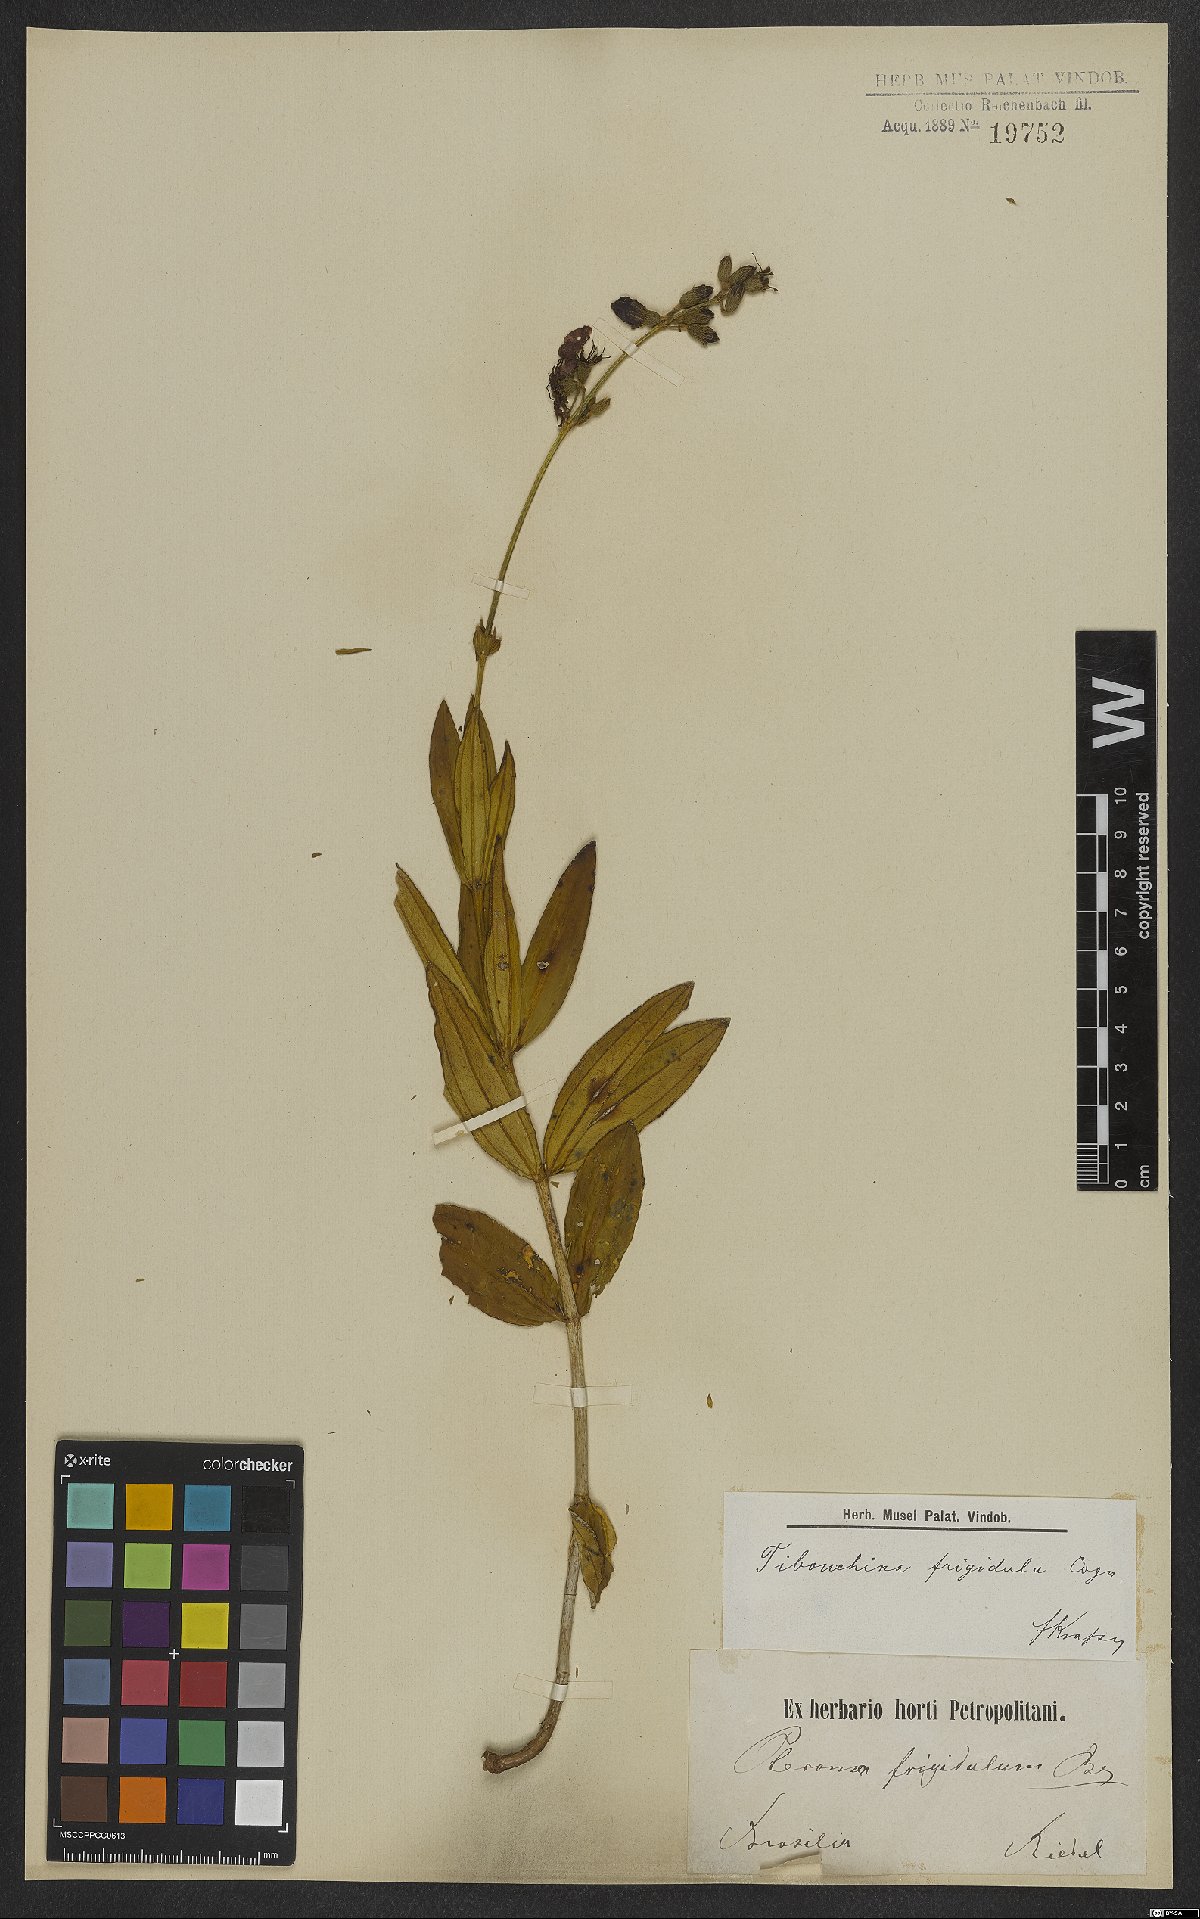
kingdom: Plantae
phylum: Tracheophyta
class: Magnoliopsida
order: Myrtales
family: Melastomataceae
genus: Pleroma
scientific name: Pleroma martiusianum
